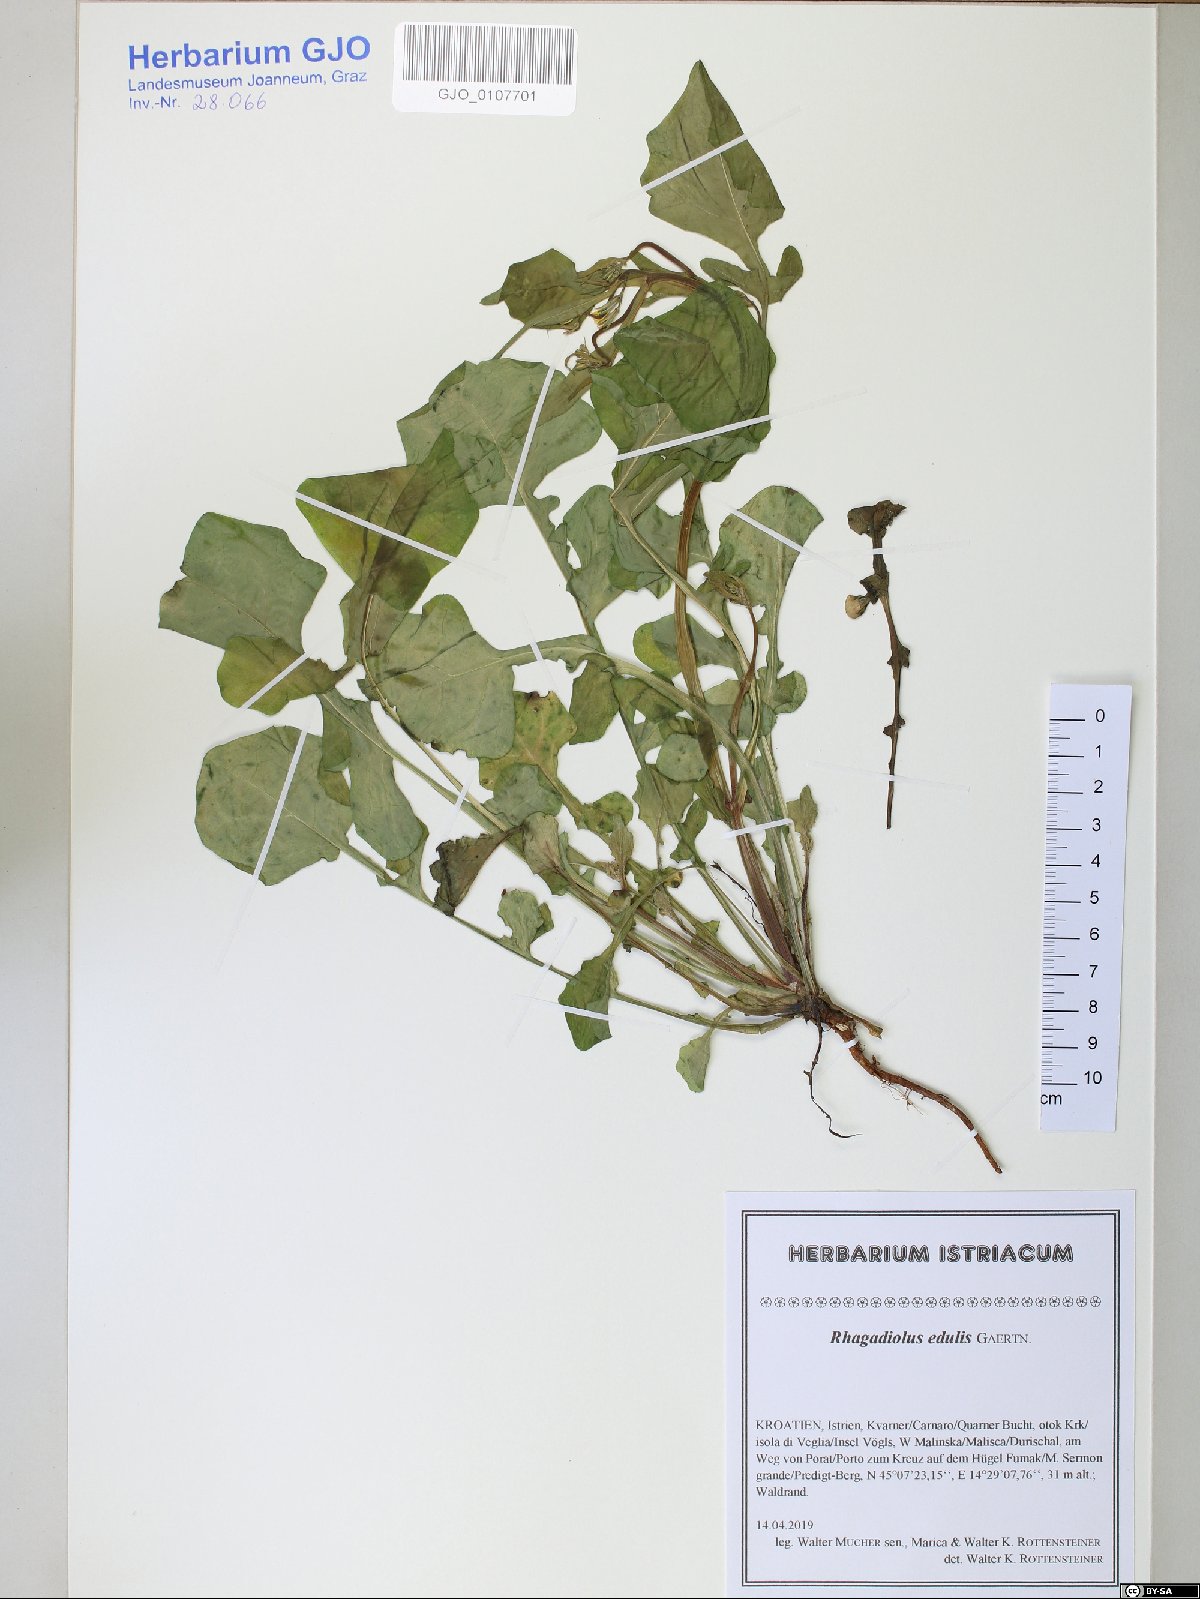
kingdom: Plantae
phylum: Tracheophyta
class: Magnoliopsida
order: Asterales
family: Asteraceae
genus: Rhagadiolus
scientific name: Rhagadiolus edulis
